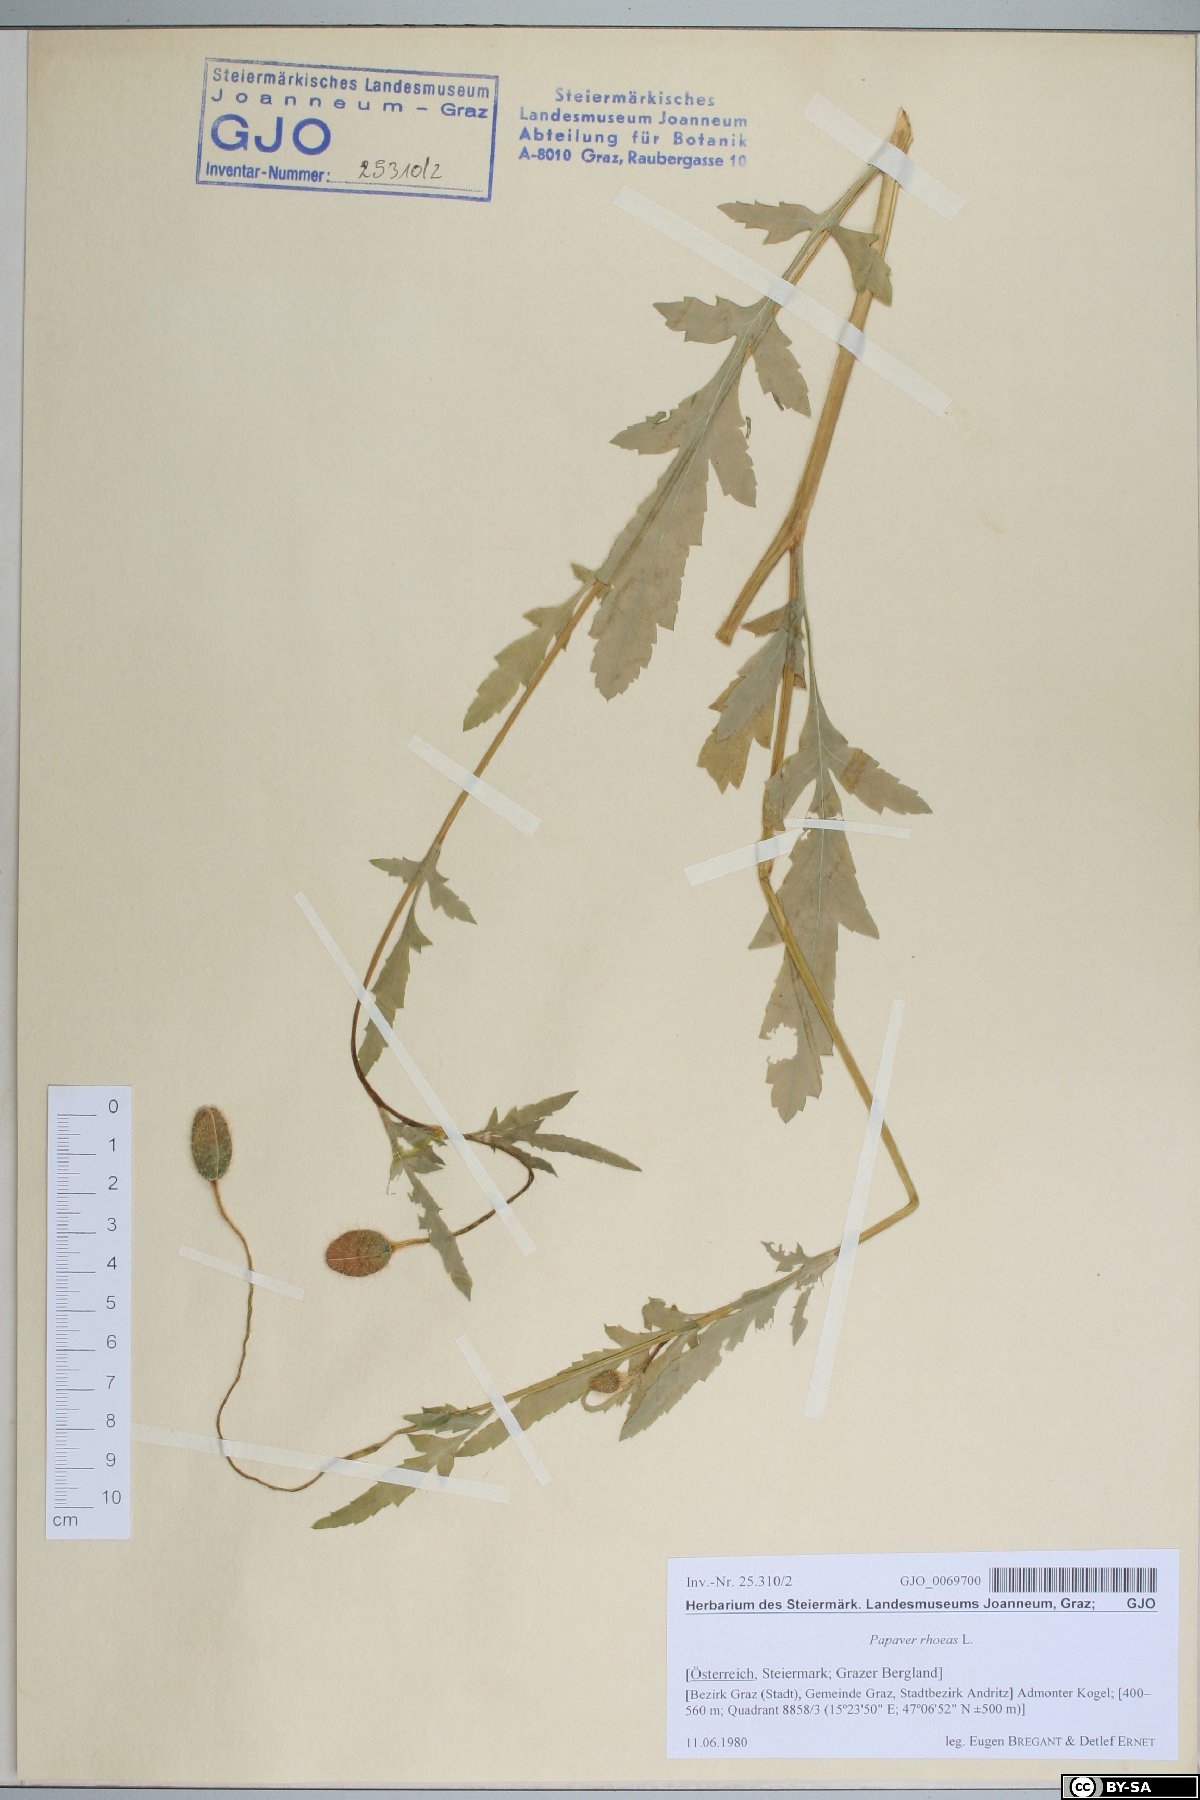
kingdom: Plantae
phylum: Tracheophyta
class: Magnoliopsida
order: Ranunculales
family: Papaveraceae
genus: Papaver
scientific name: Papaver rhoeas
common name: Corn poppy
